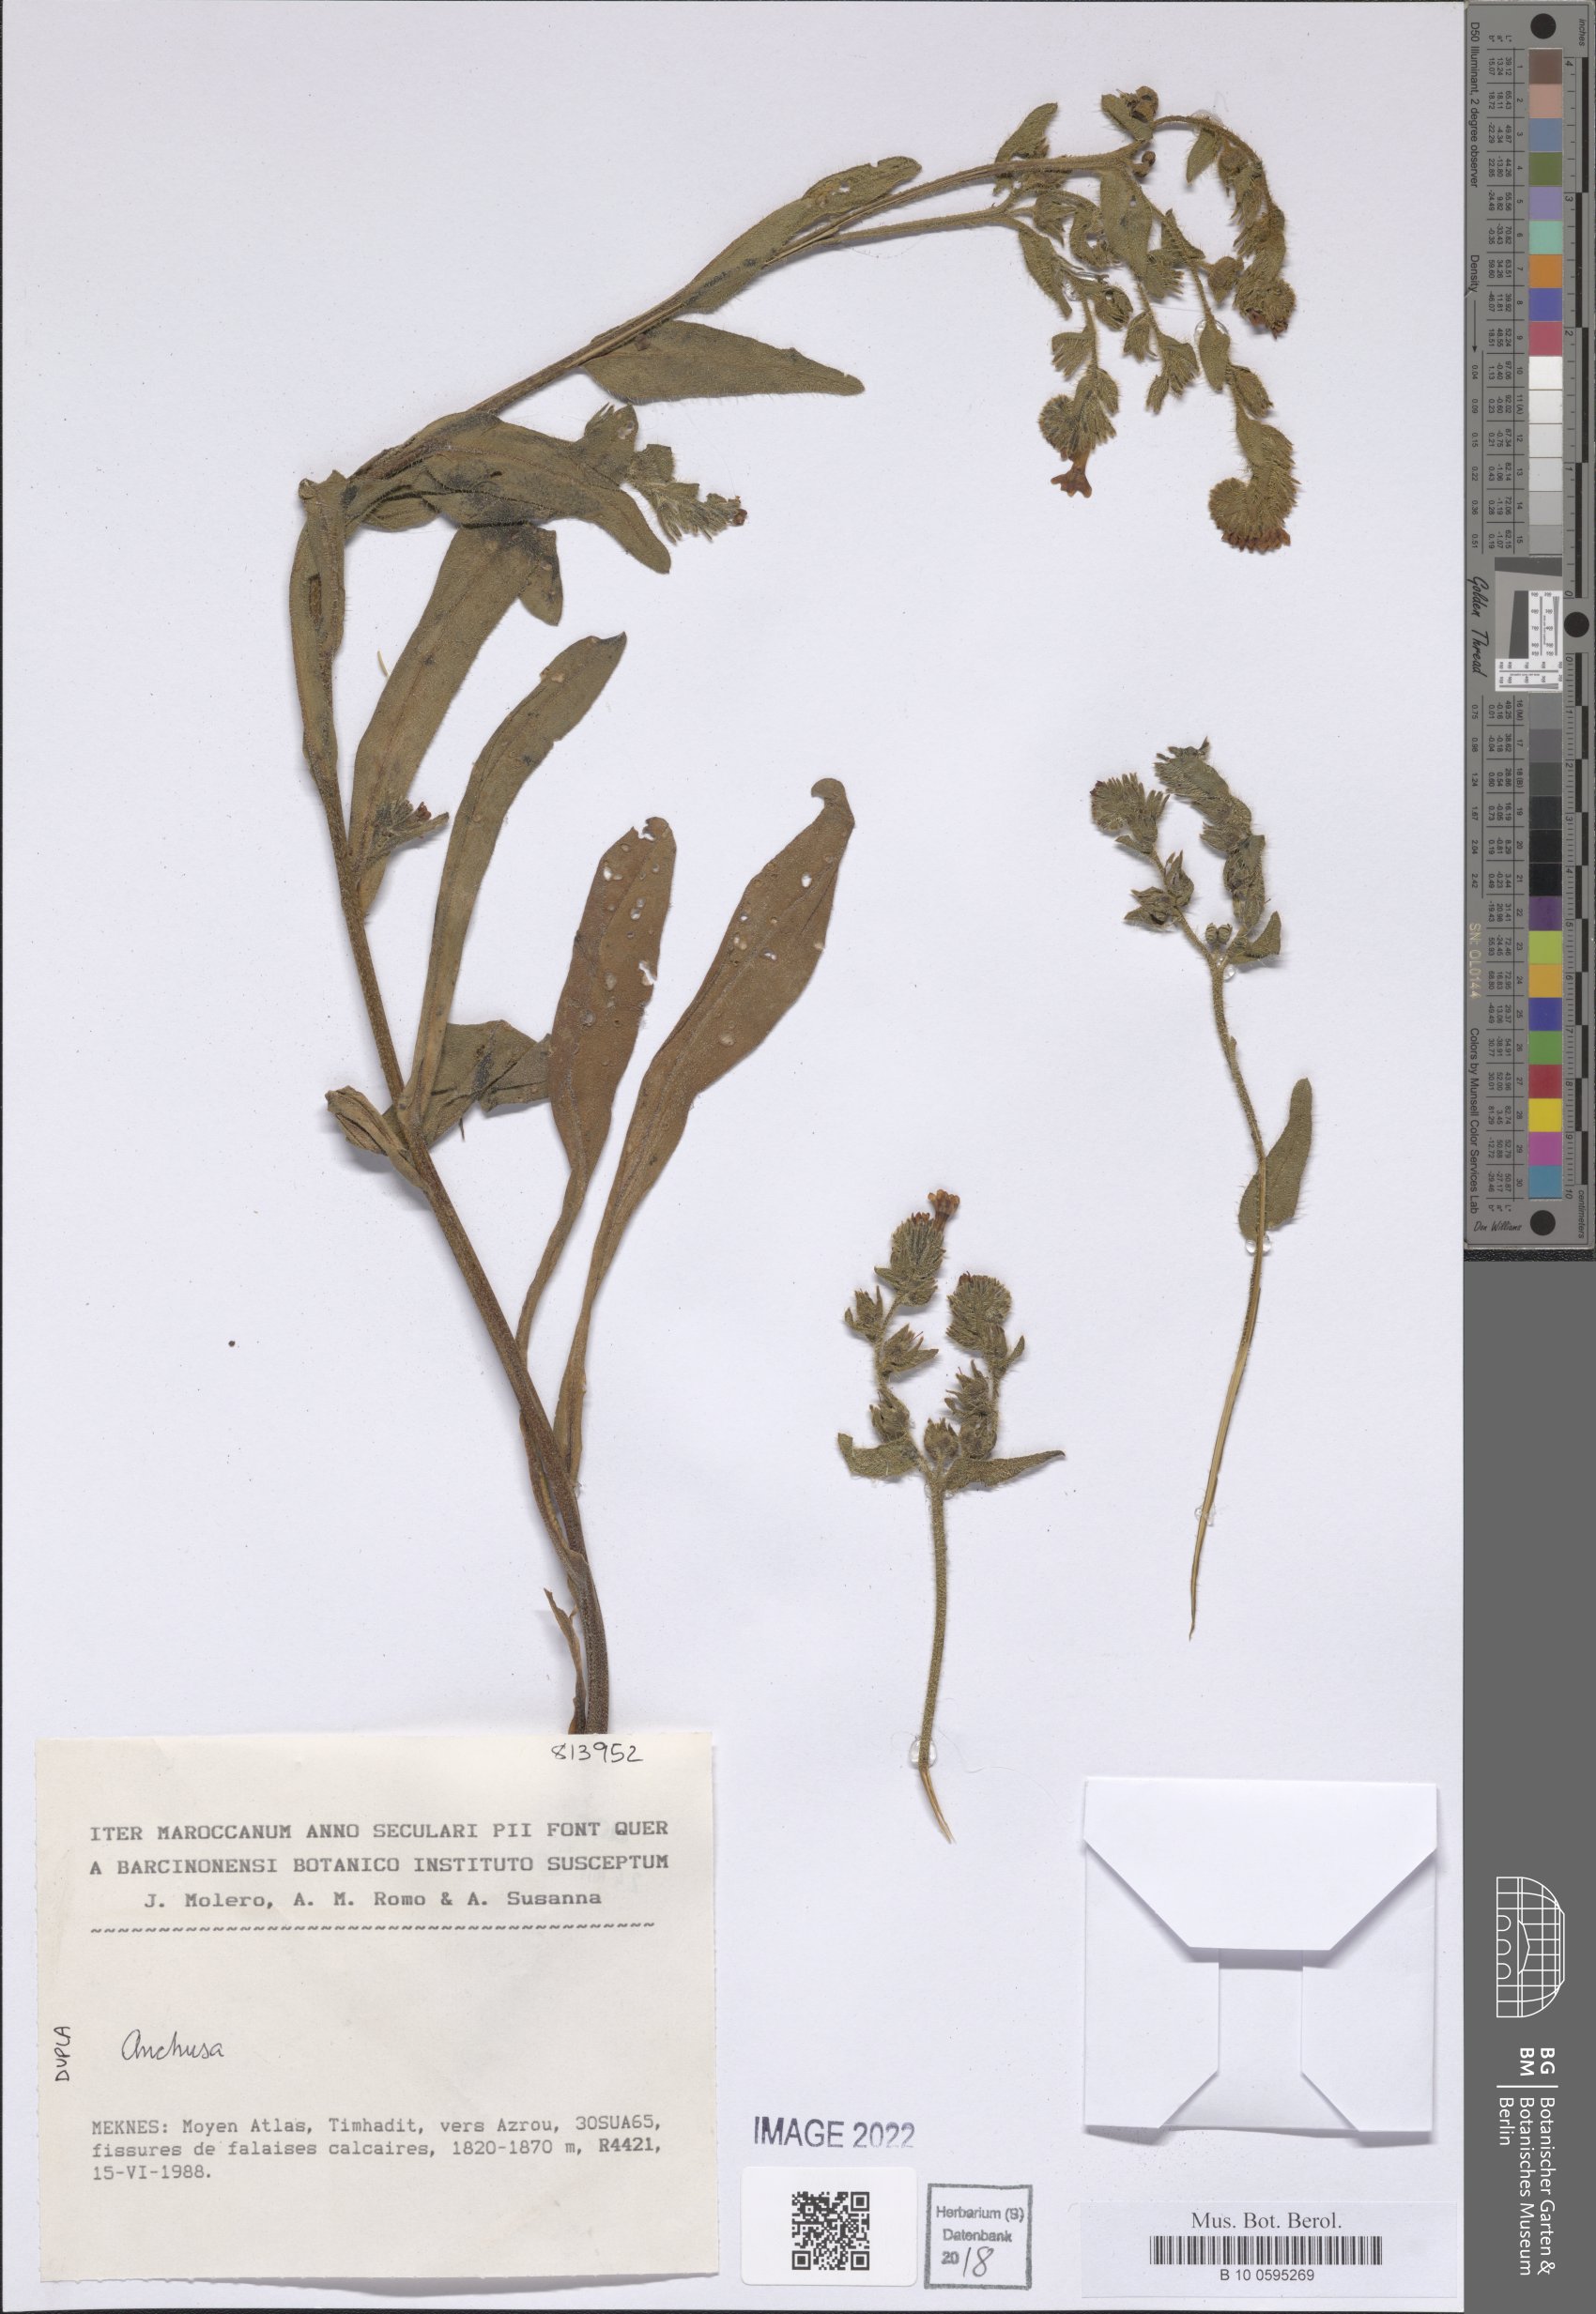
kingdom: Plantae
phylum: Tracheophyta
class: Magnoliopsida
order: Boraginales
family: Boraginaceae
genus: Anchusa
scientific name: Anchusa
